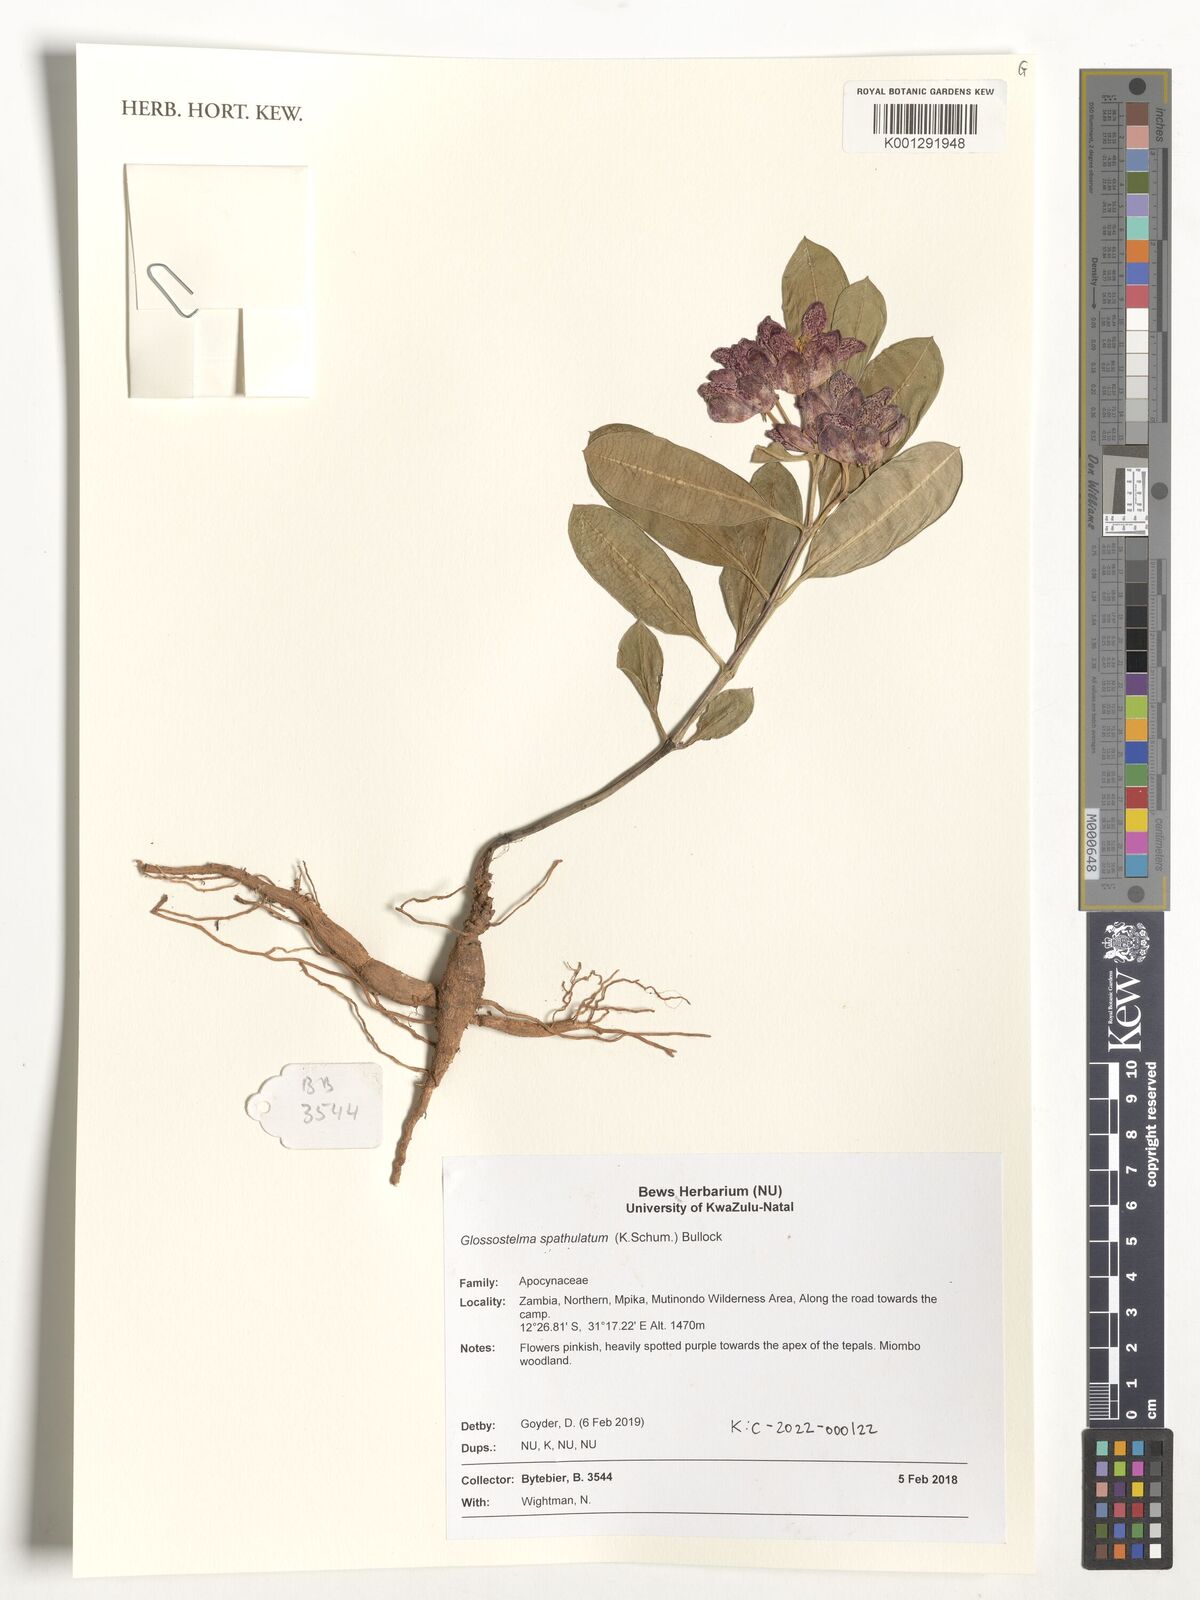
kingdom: Plantae
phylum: Tracheophyta
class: Magnoliopsida
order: Gentianales
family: Apocynaceae
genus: Glossostelma
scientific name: Glossostelma spathulatum
